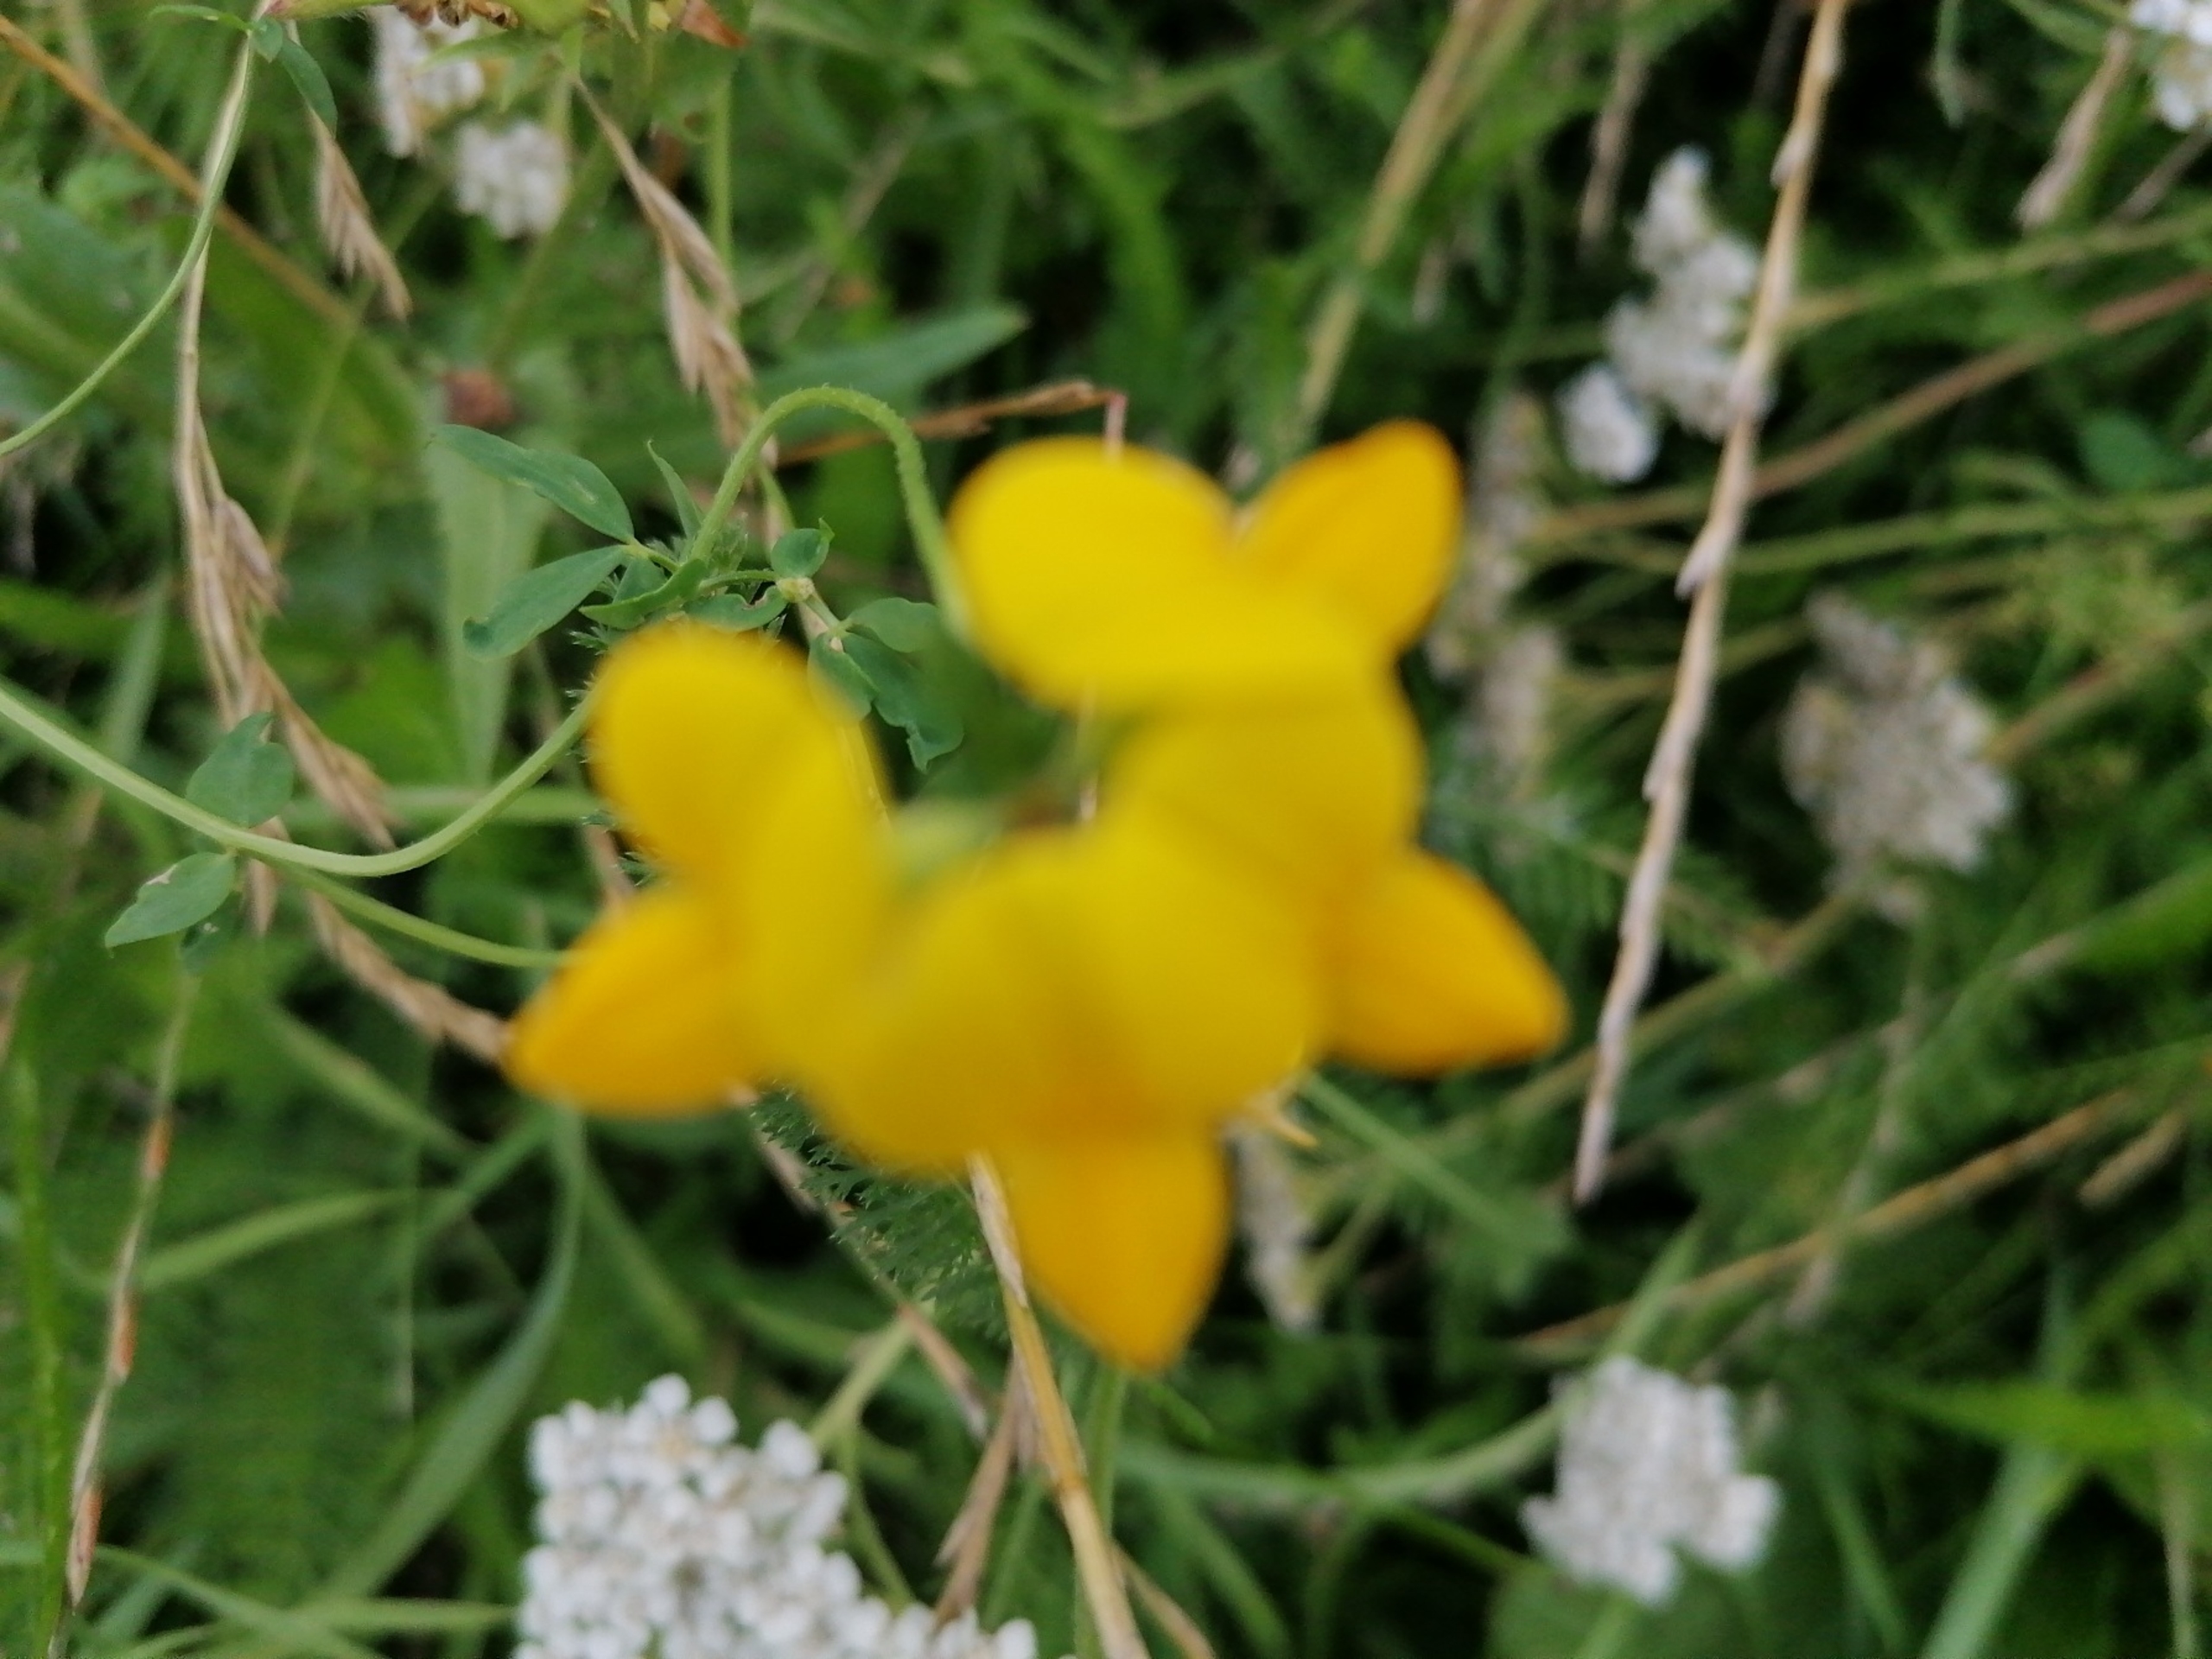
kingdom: Plantae
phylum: Tracheophyta
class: Magnoliopsida
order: Fabales
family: Fabaceae
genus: Lotus
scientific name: Lotus corniculatus
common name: Almindelig kællingetand
